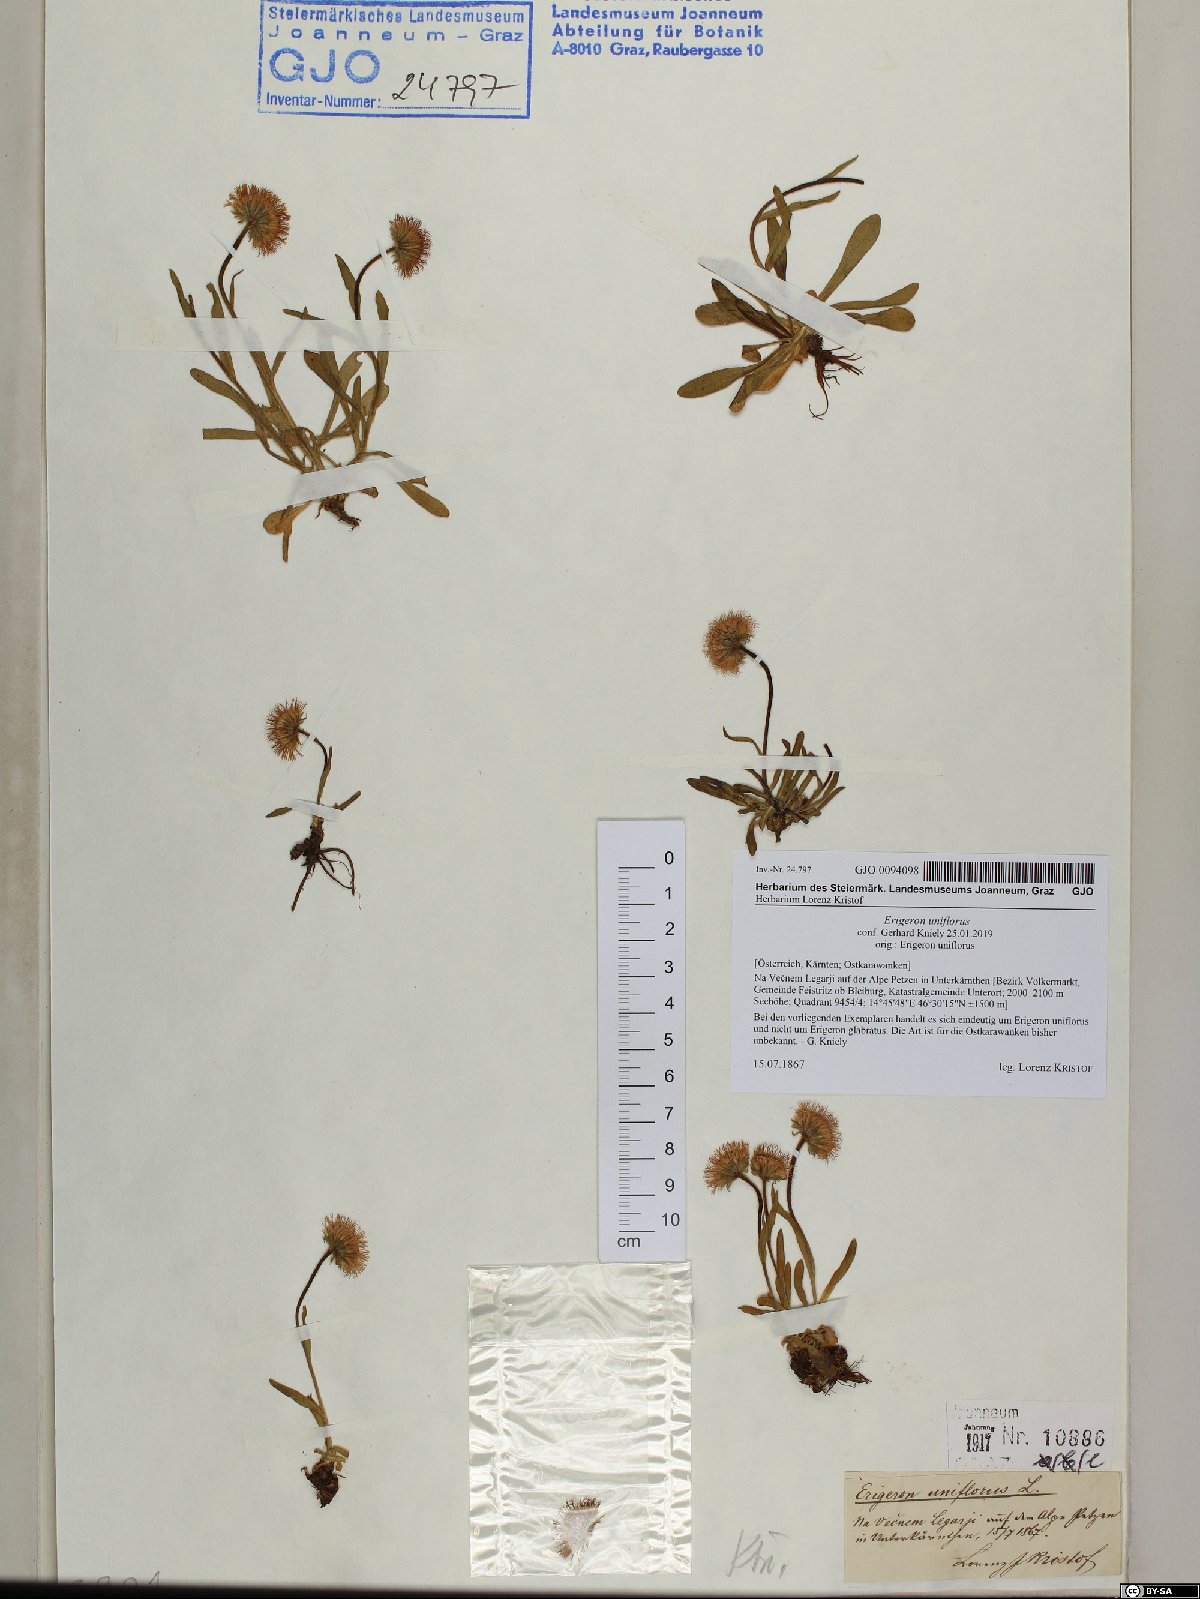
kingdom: Plantae
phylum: Tracheophyta
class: Magnoliopsida
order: Asterales
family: Asteraceae
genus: Erigeron
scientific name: Erigeron uniflorus
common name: Northern daisy
